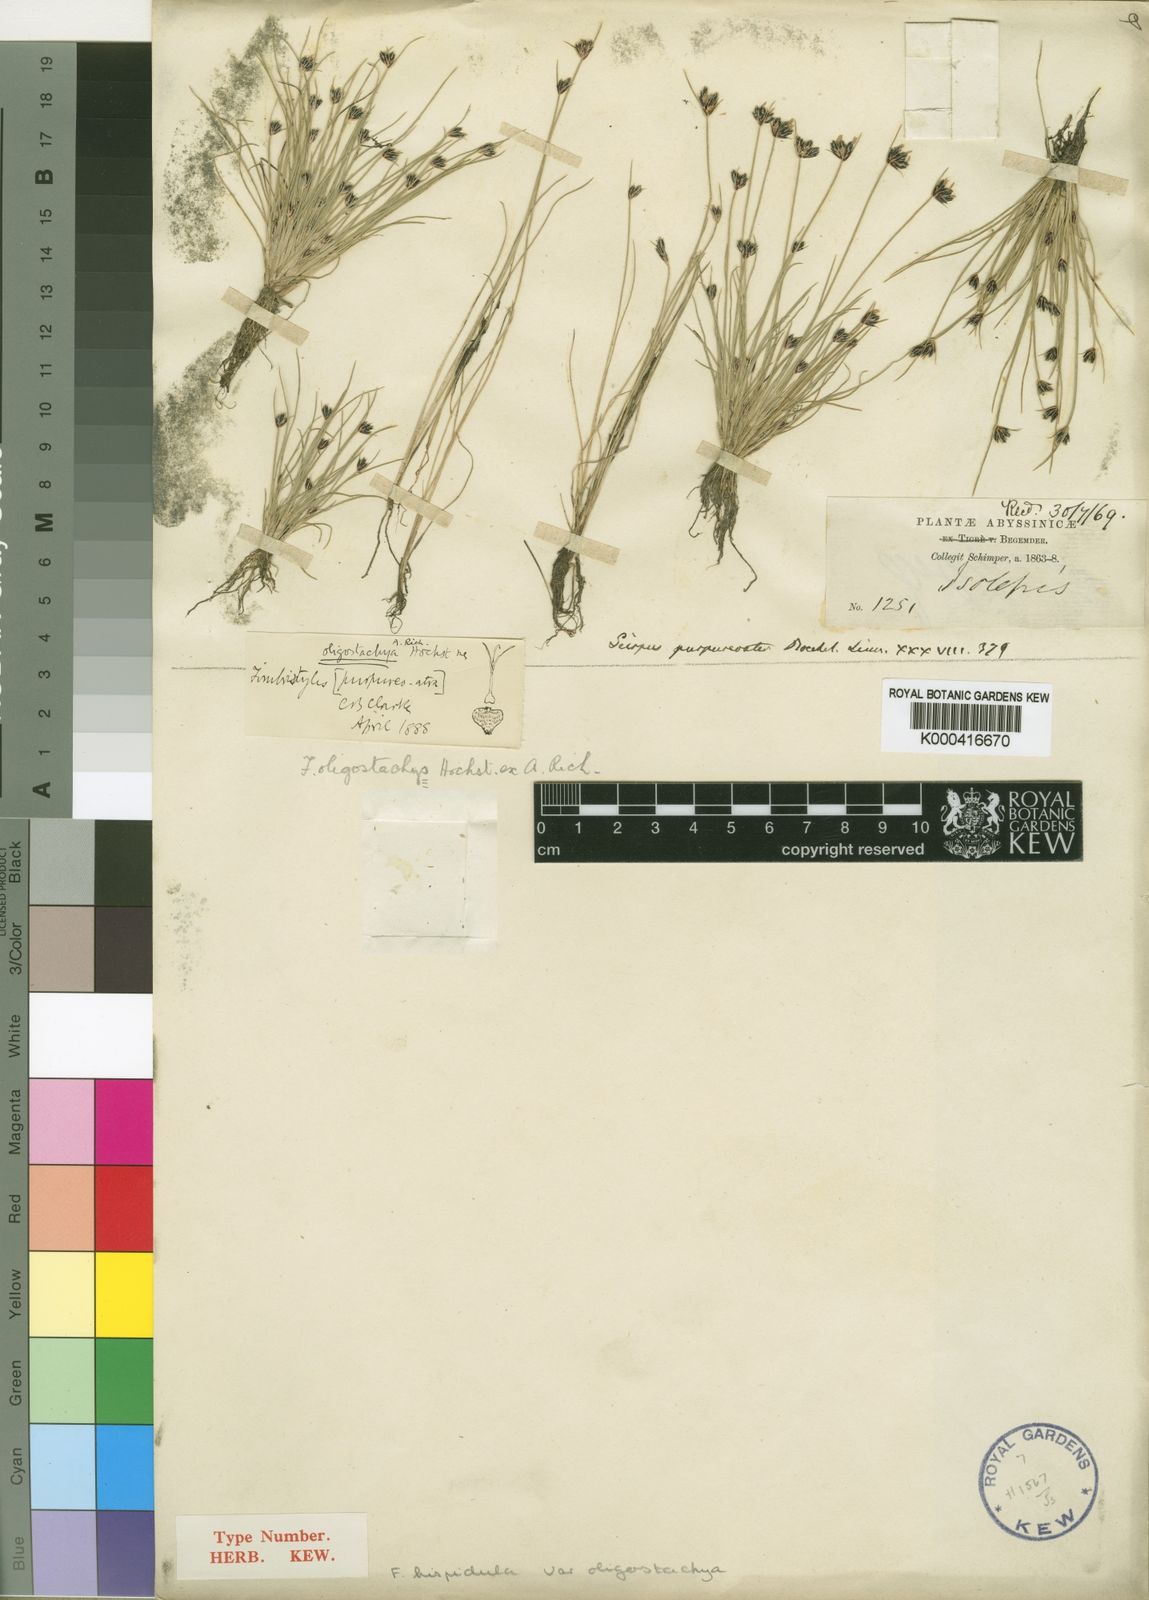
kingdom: Plantae
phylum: Tracheophyta
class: Liliopsida
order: Poales
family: Cyperaceae
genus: Bulbostylis
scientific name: Bulbostylis hispidula
